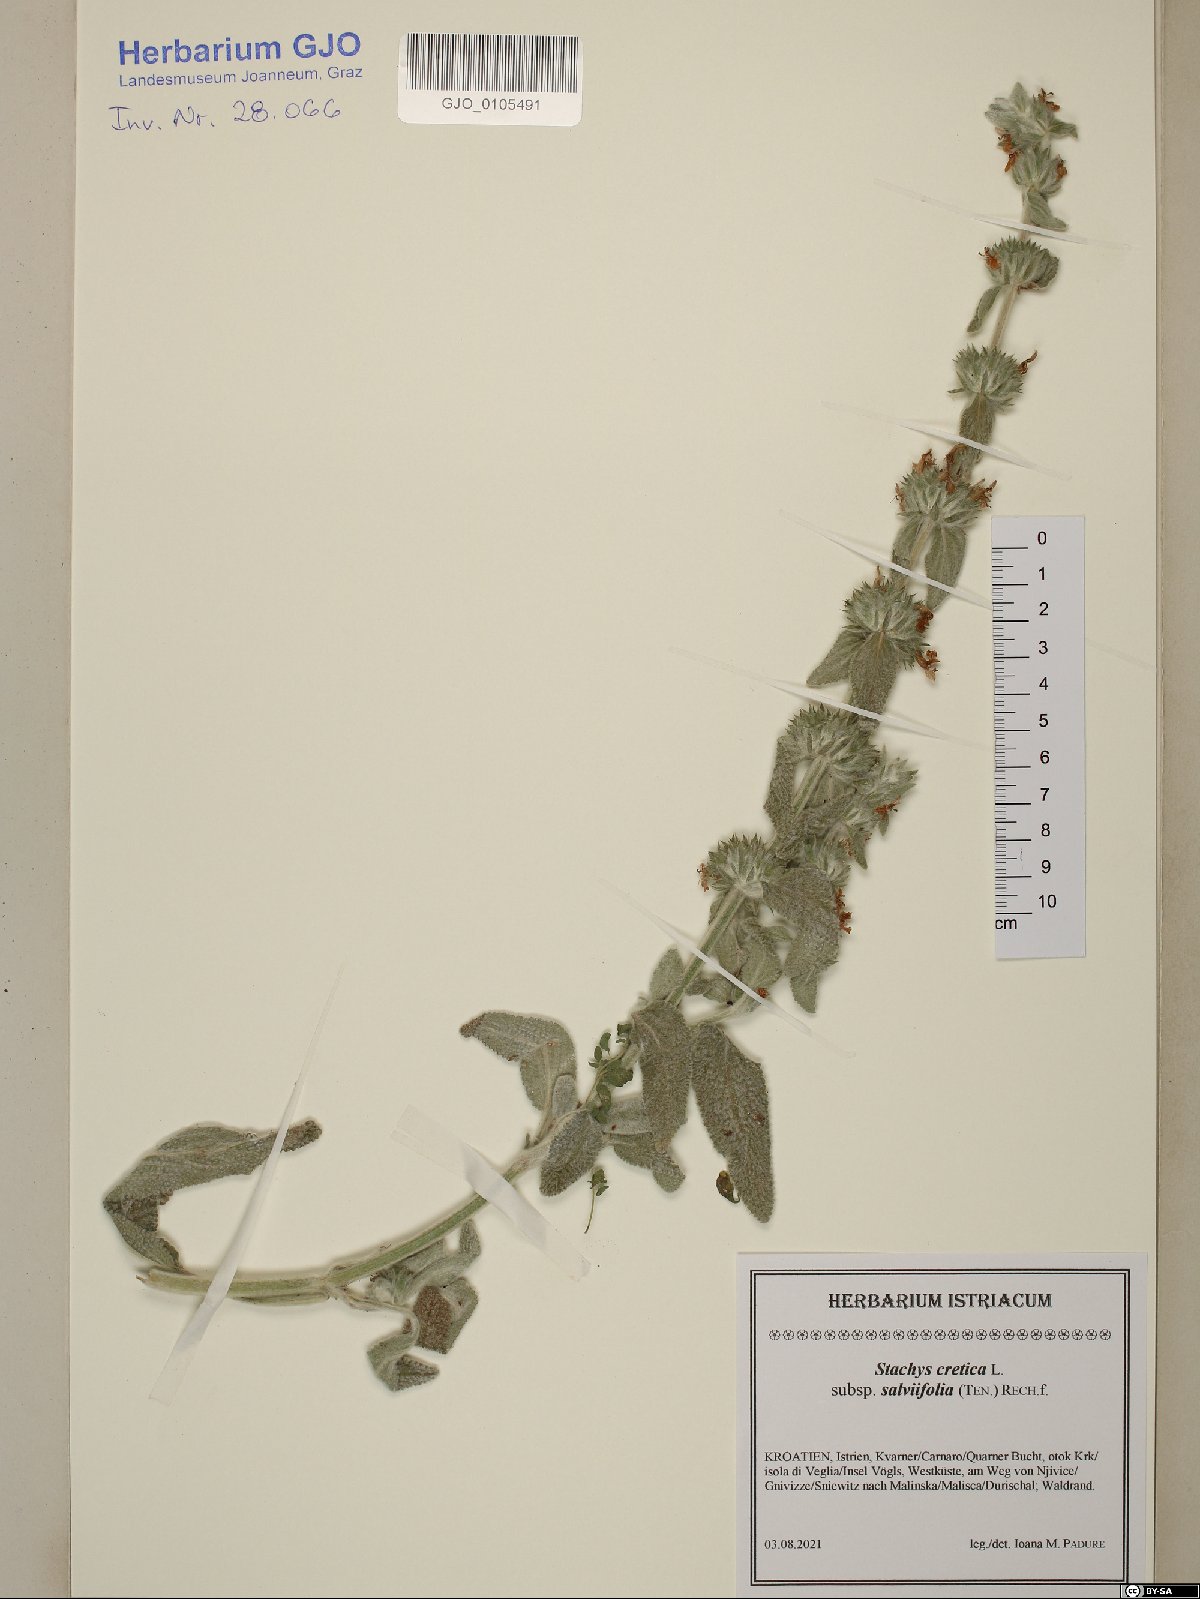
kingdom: Plantae
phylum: Tracheophyta
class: Magnoliopsida
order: Lamiales
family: Lamiaceae
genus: Stachys
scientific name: Stachys cretica
